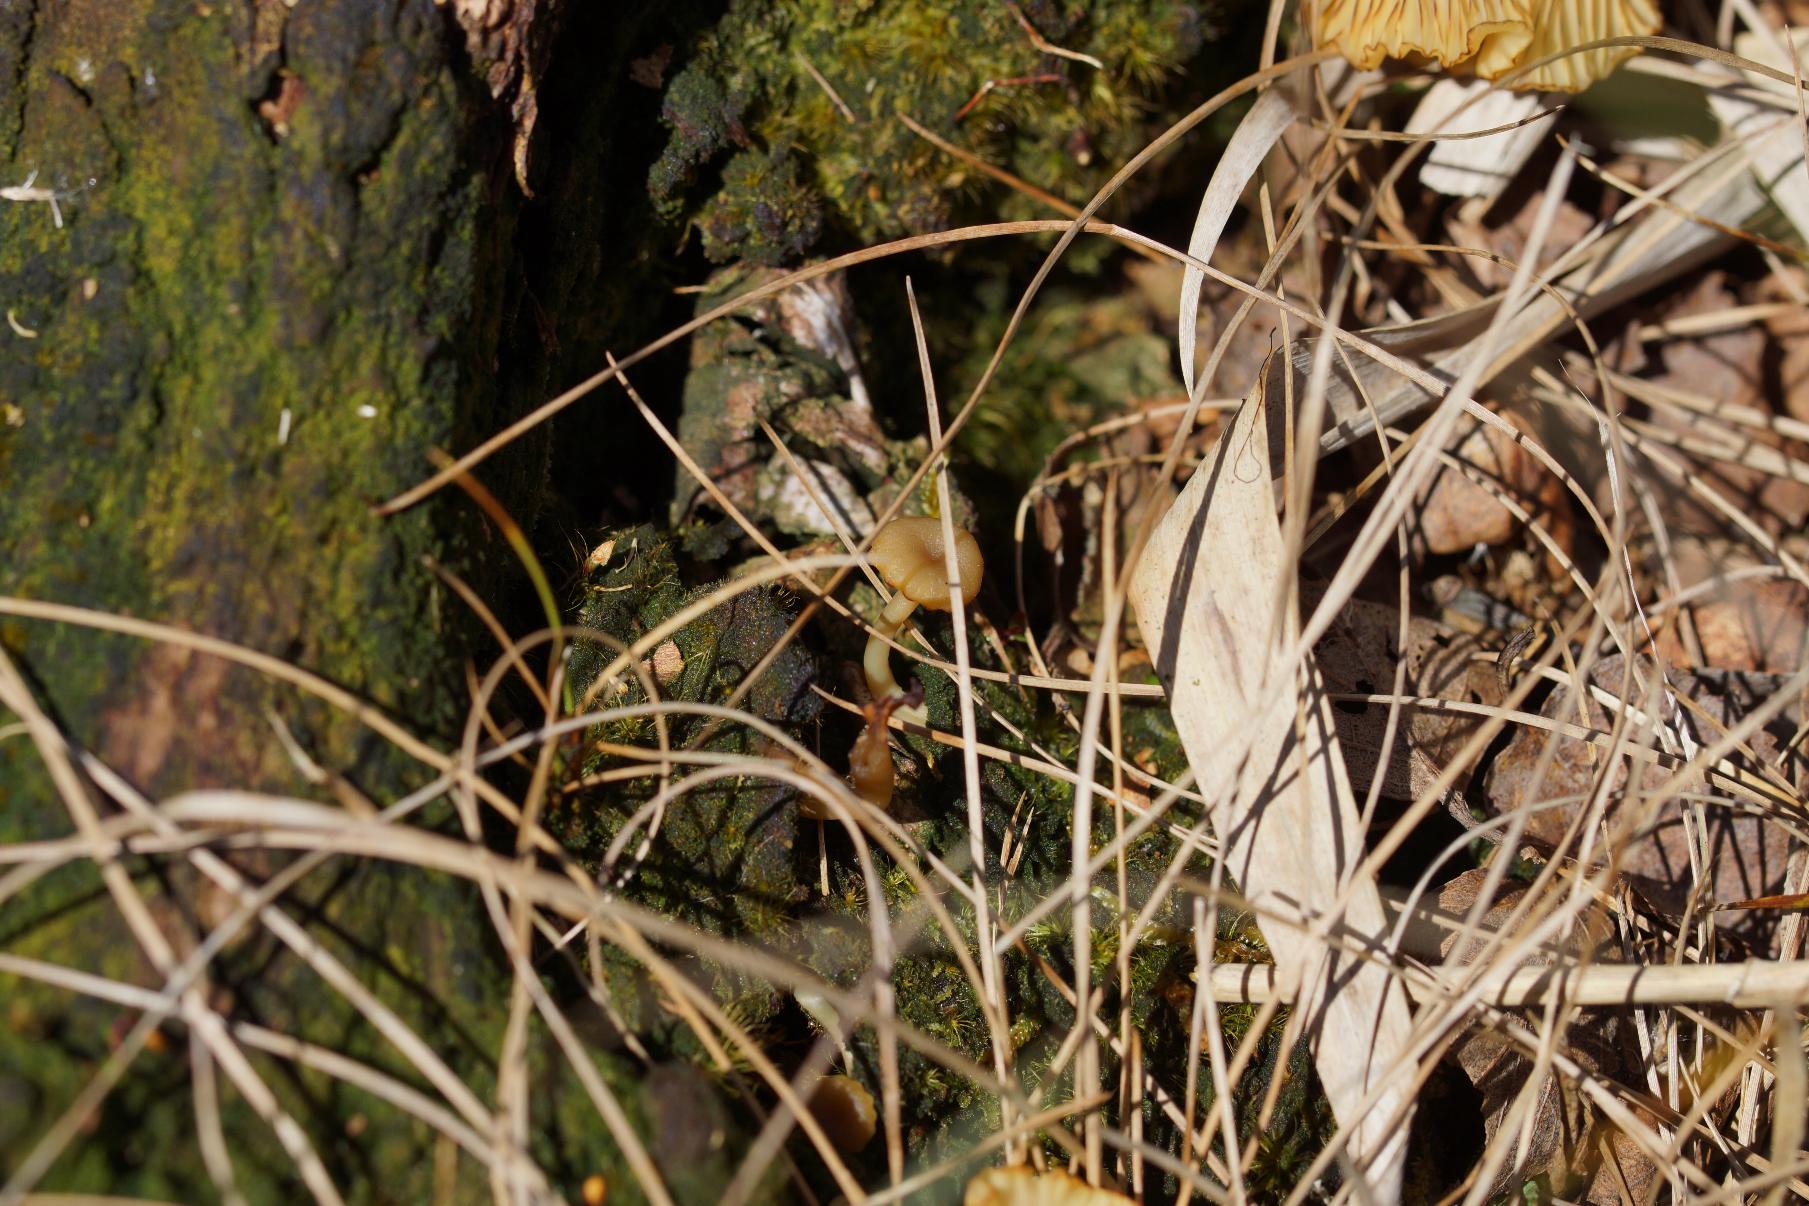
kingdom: Fungi
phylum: Basidiomycota
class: Agaricomycetes
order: Agaricales
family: Hygrophoraceae
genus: Lichenomphalia
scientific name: Lichenomphalia umbellifera
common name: Tørve-lavhat
